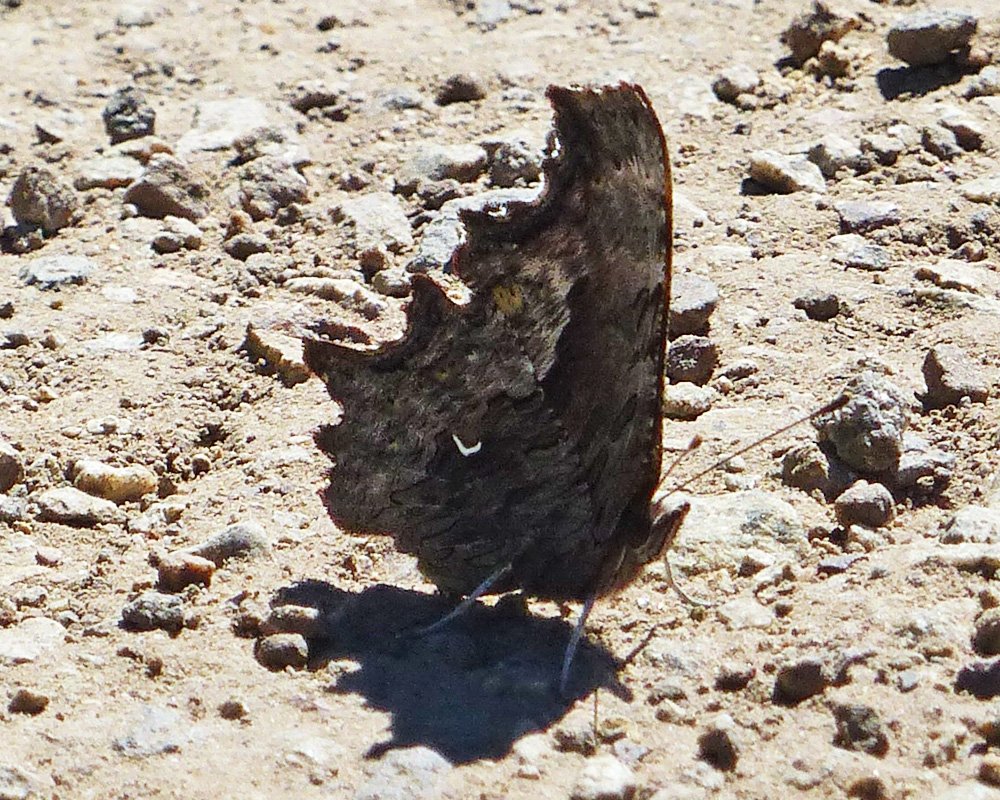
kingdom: Animalia
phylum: Arthropoda
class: Insecta
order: Lepidoptera
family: Nymphalidae
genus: Polygonia
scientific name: Polygonia gracilis
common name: Hoary Comma
